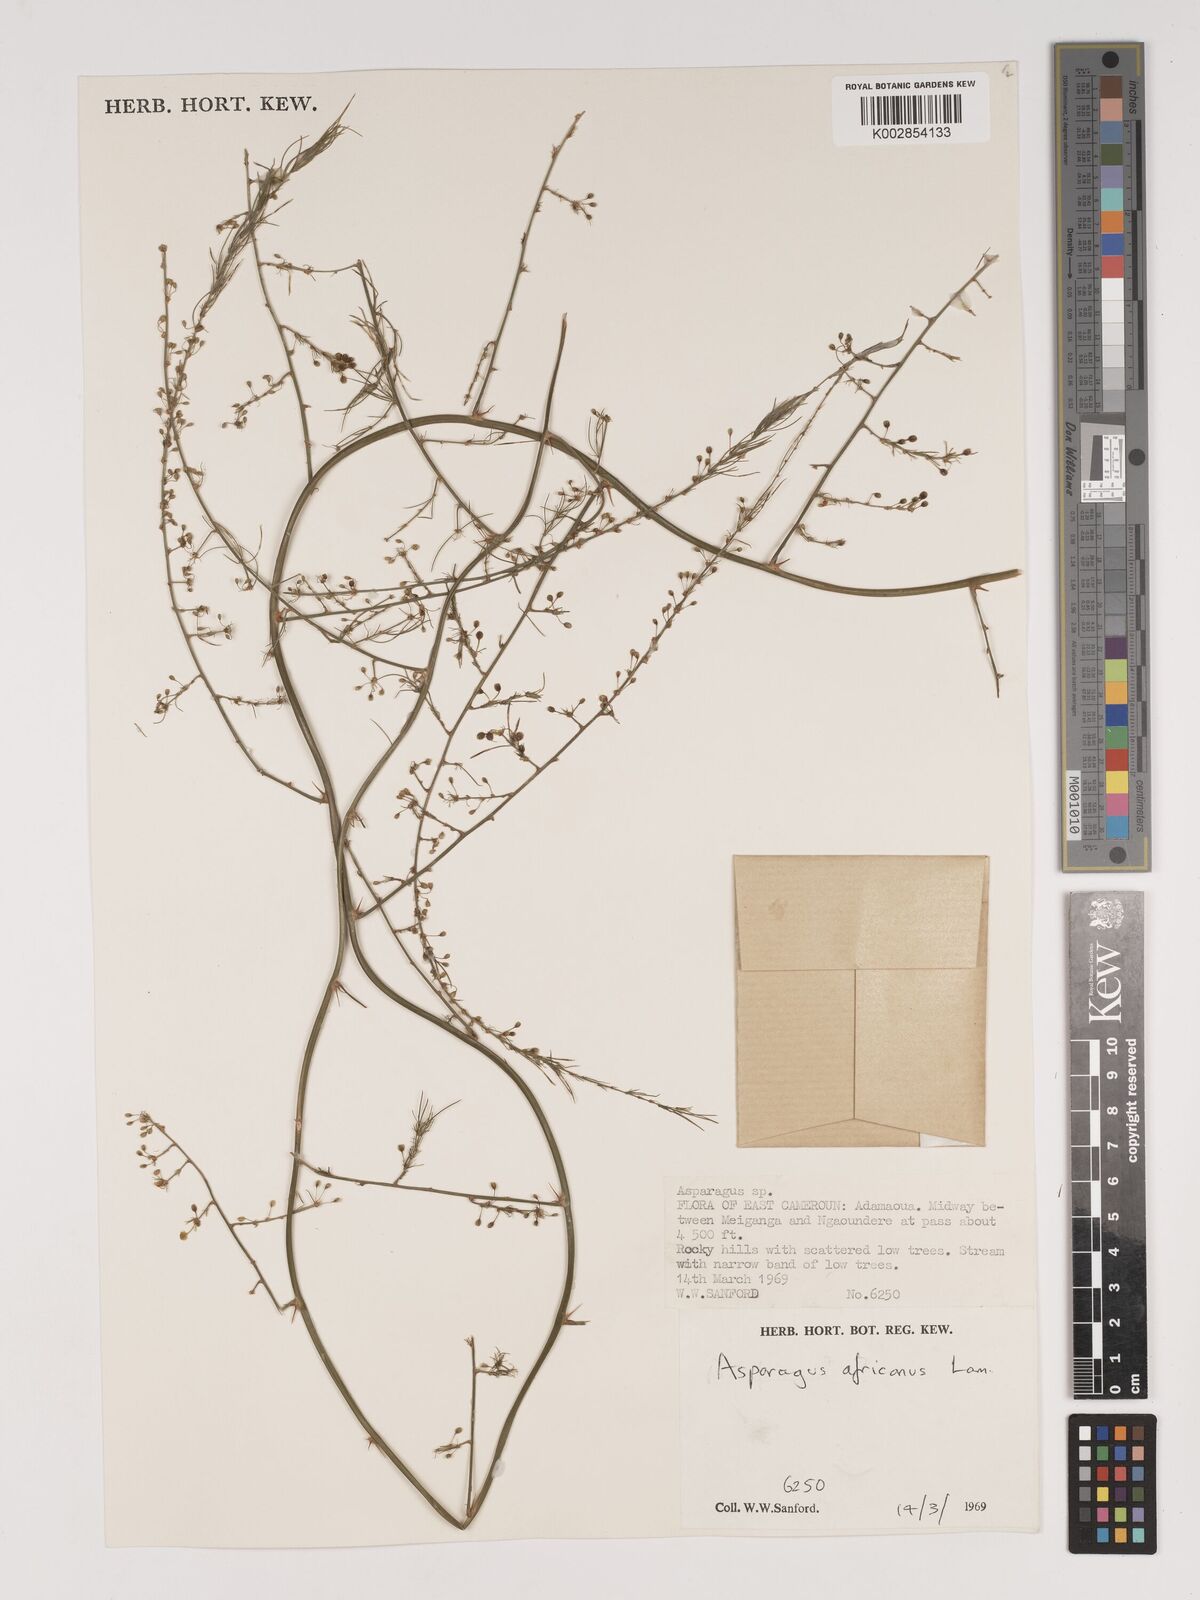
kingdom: Plantae
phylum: Tracheophyta
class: Liliopsida
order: Asparagales
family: Asparagaceae
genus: Asparagus
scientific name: Asparagus africanus
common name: Asparagus-fern
